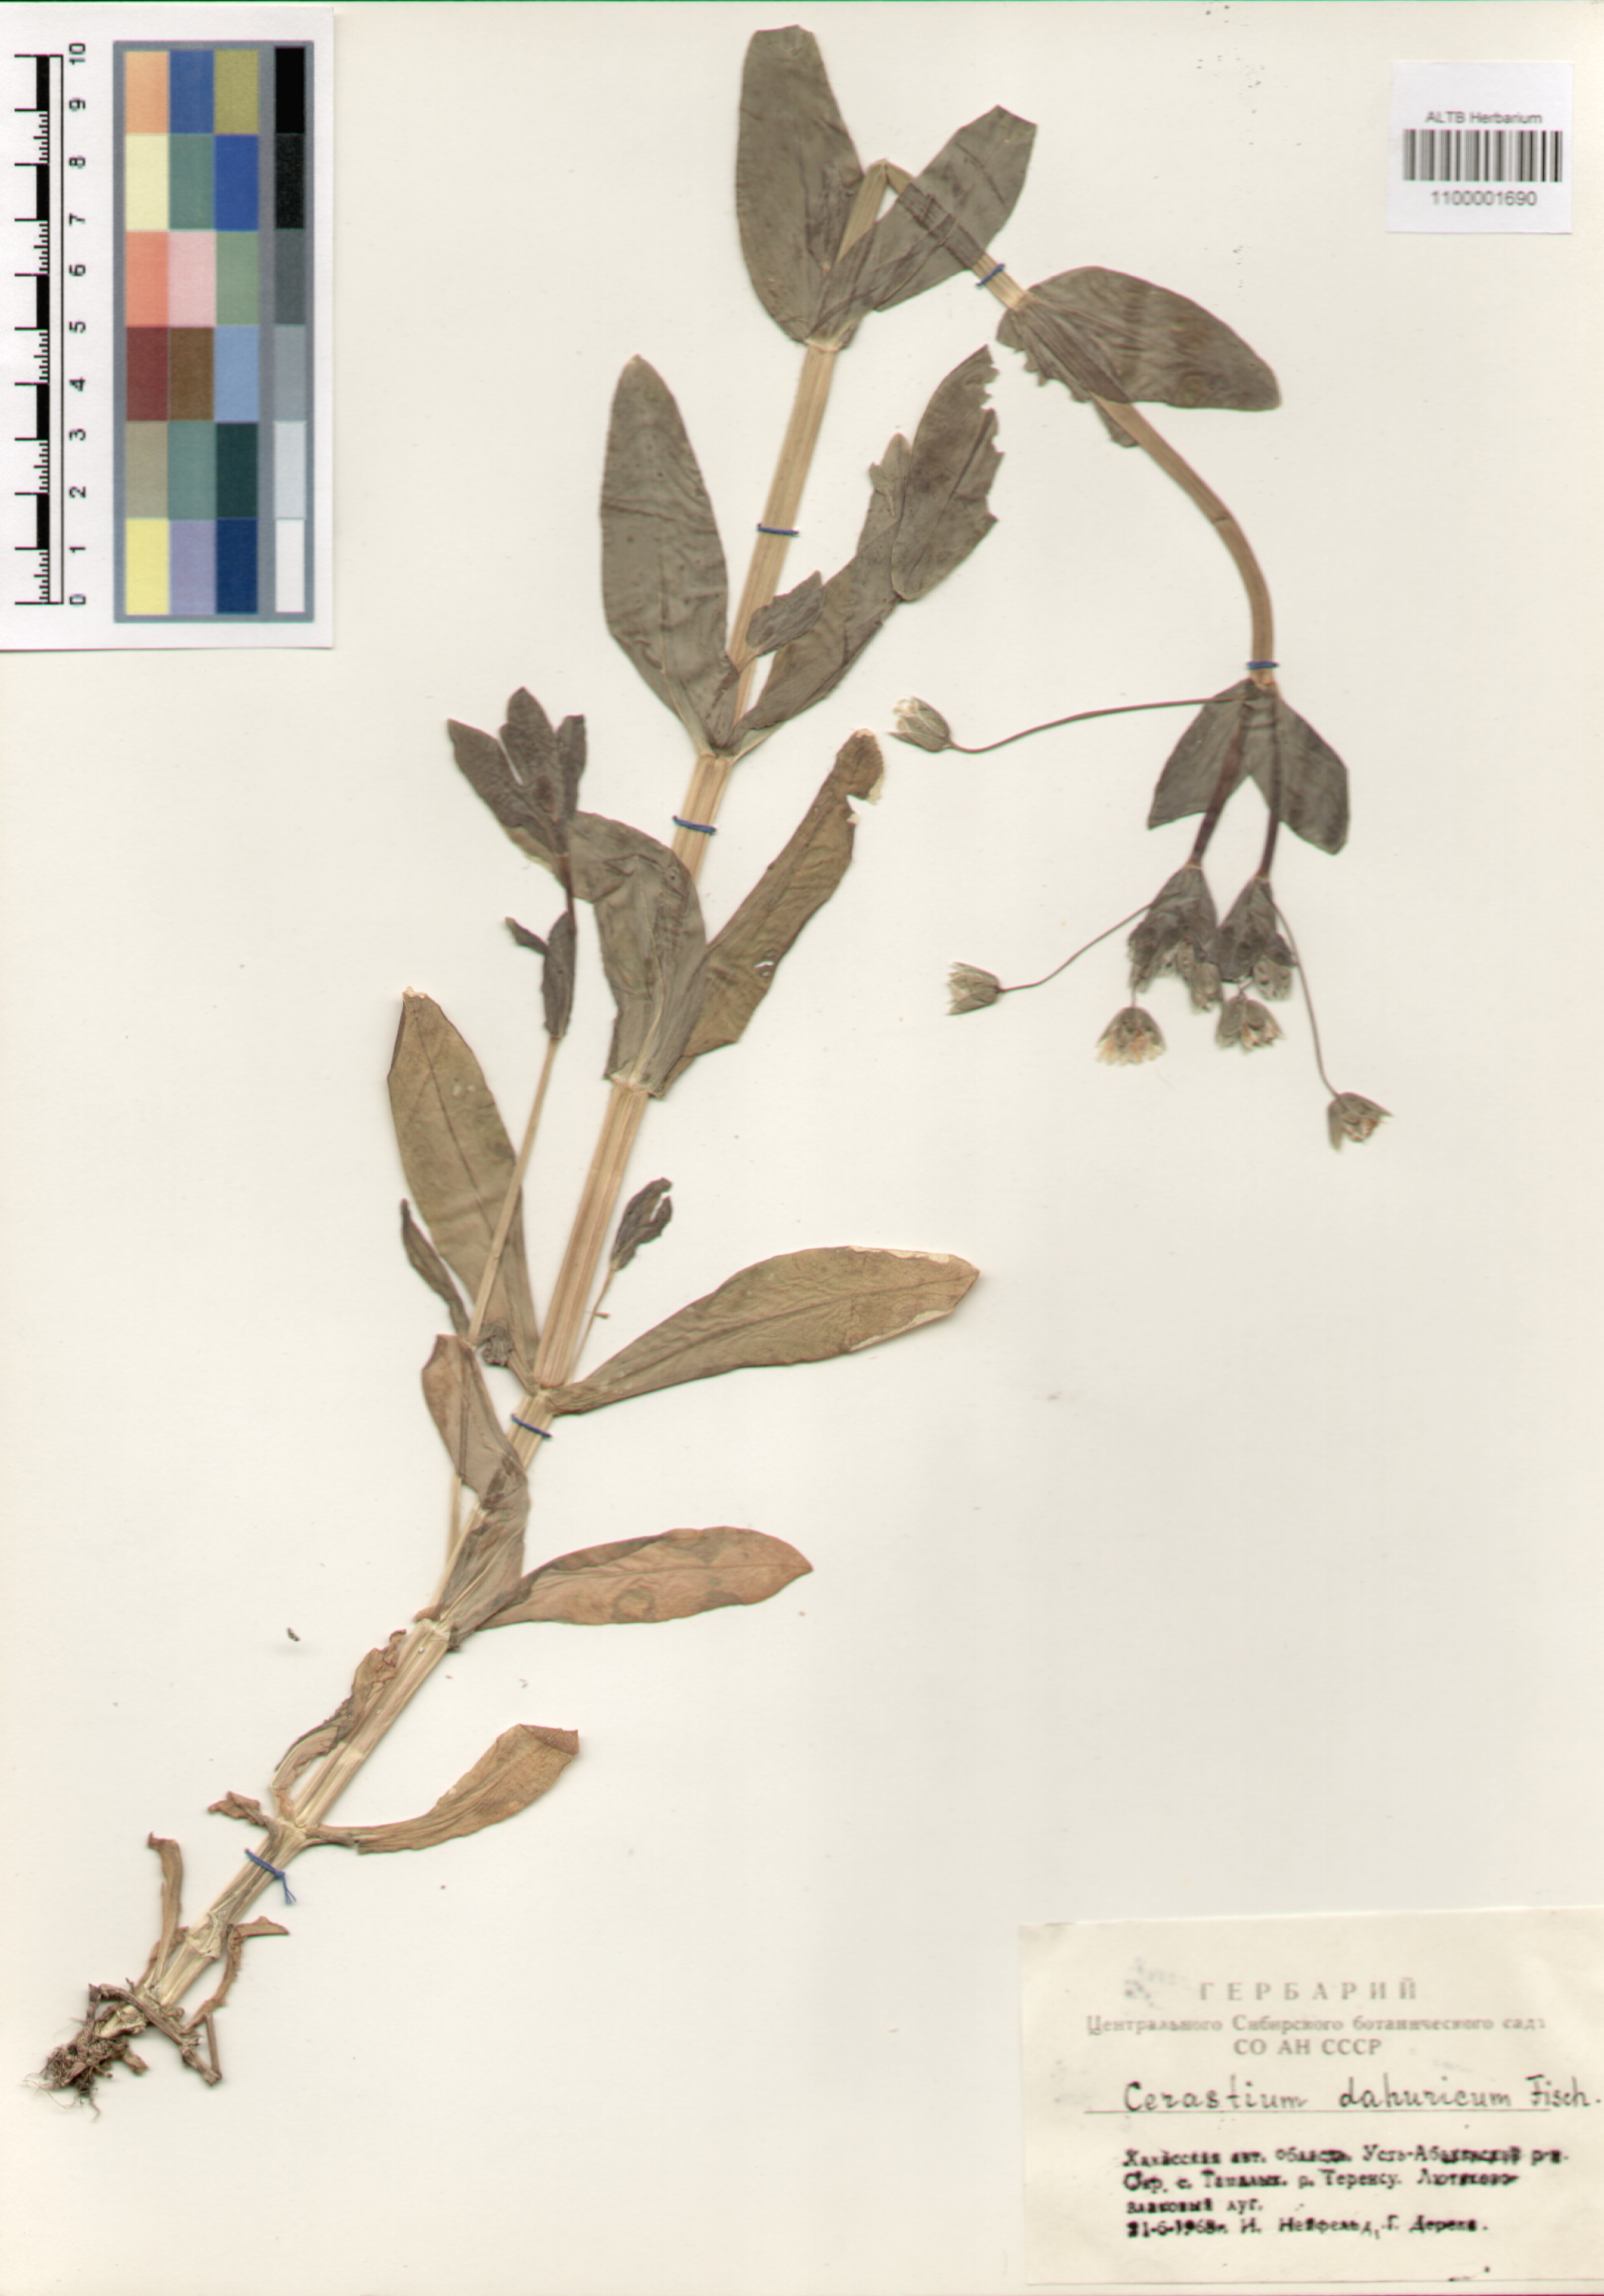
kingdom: Plantae
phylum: Tracheophyta
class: Magnoliopsida
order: Caryophyllales
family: Caryophyllaceae
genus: Dichodon
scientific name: Dichodon davuricum
